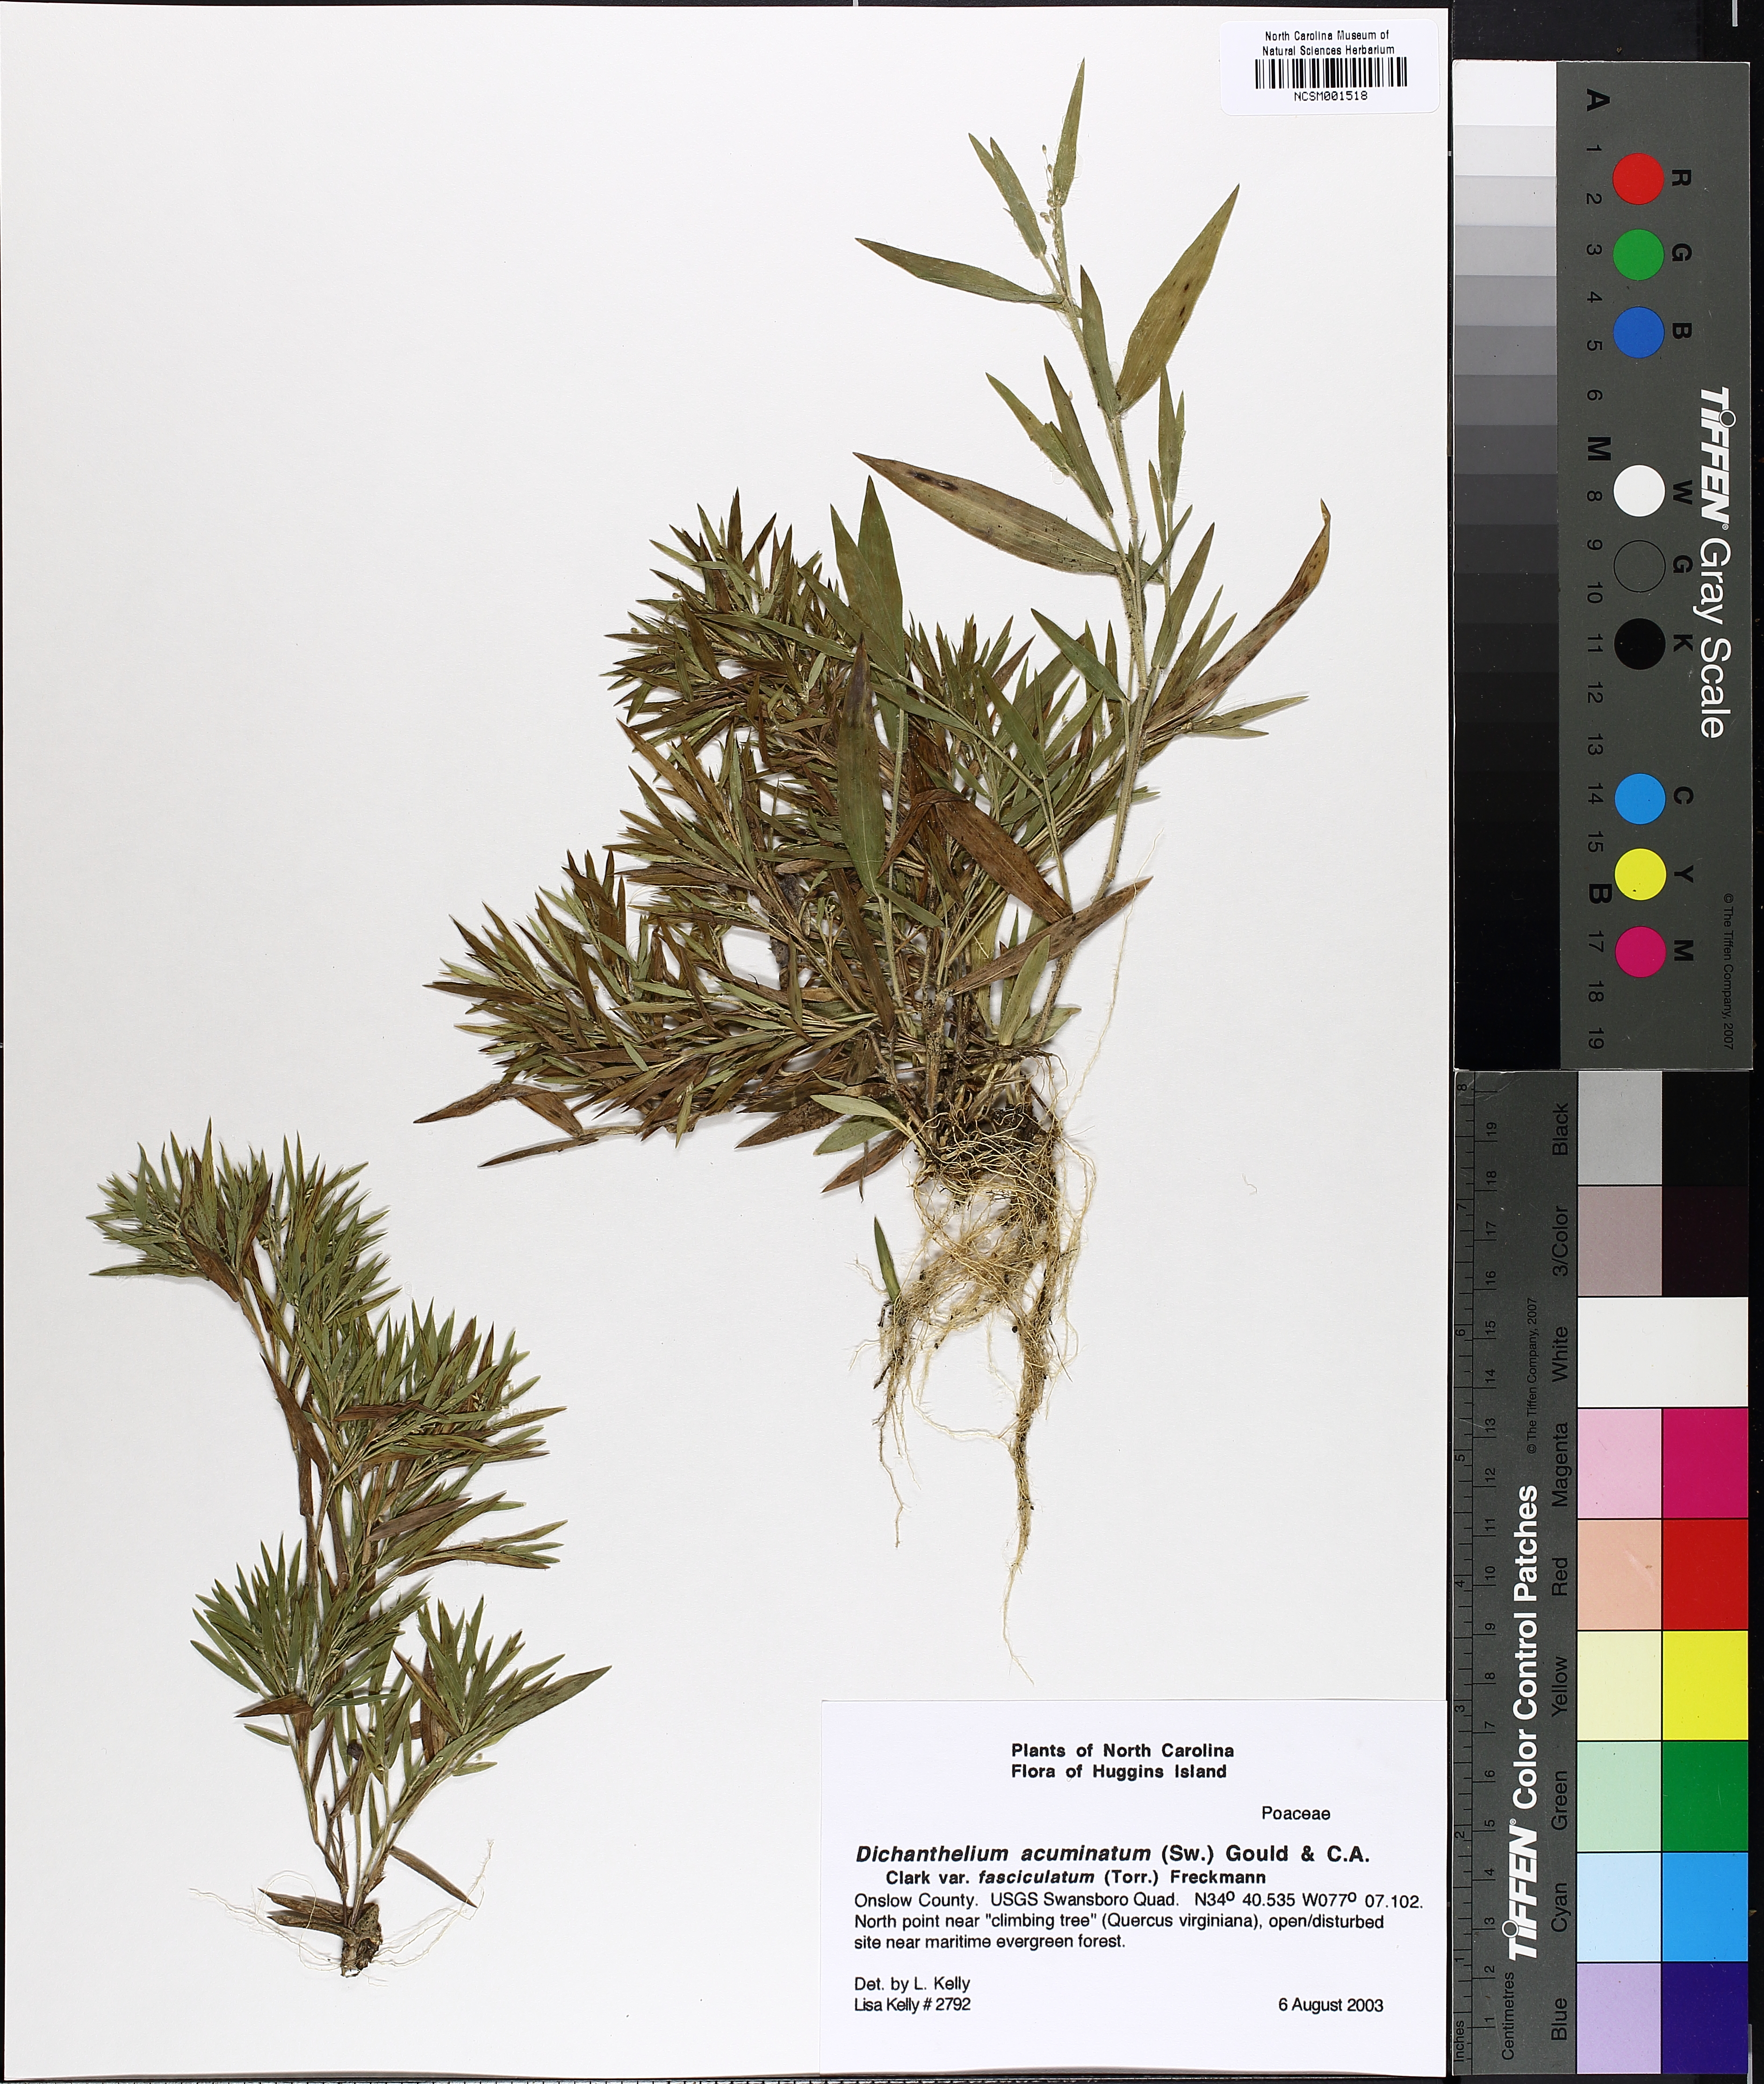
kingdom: Plantae
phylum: Tracheophyta
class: Liliopsida
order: Poales
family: Poaceae
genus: Dichanthelium
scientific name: Dichanthelium lanuginosum
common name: Woolly panicgrass
